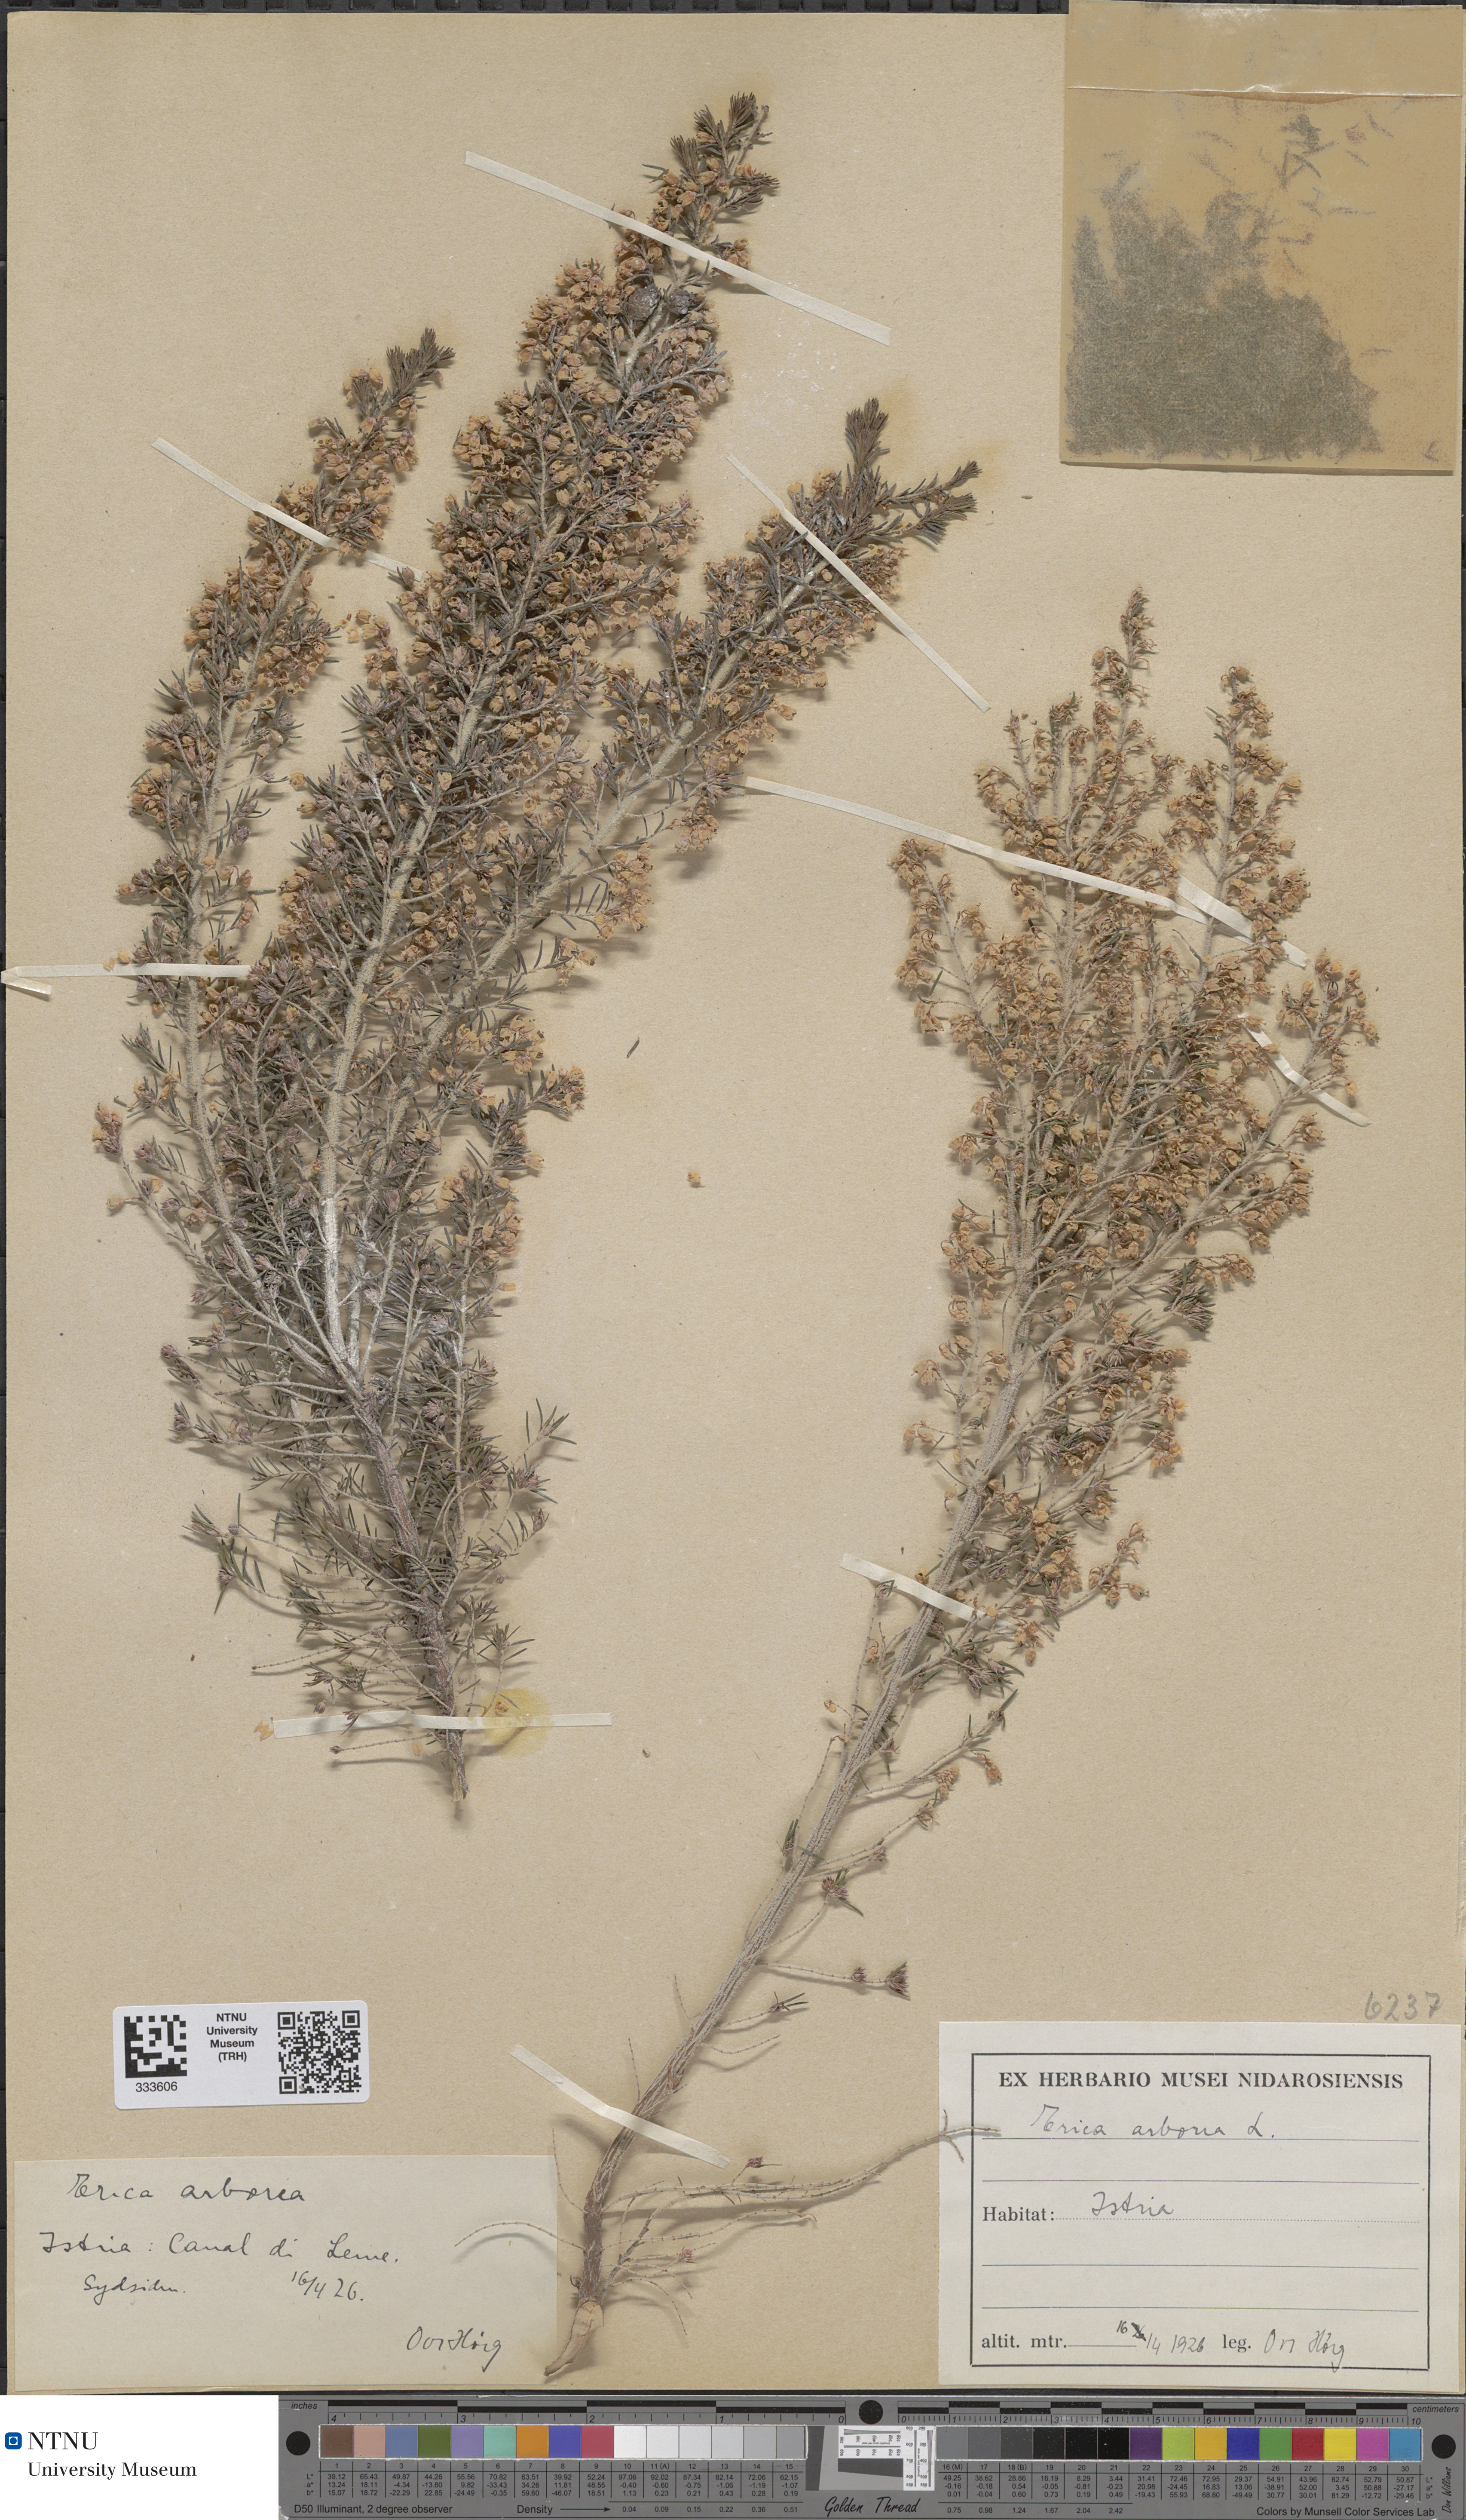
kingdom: Plantae
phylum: Tracheophyta
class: Magnoliopsida
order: Ericales
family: Ericaceae
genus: Erica
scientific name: Erica arborea
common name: Tree heath
